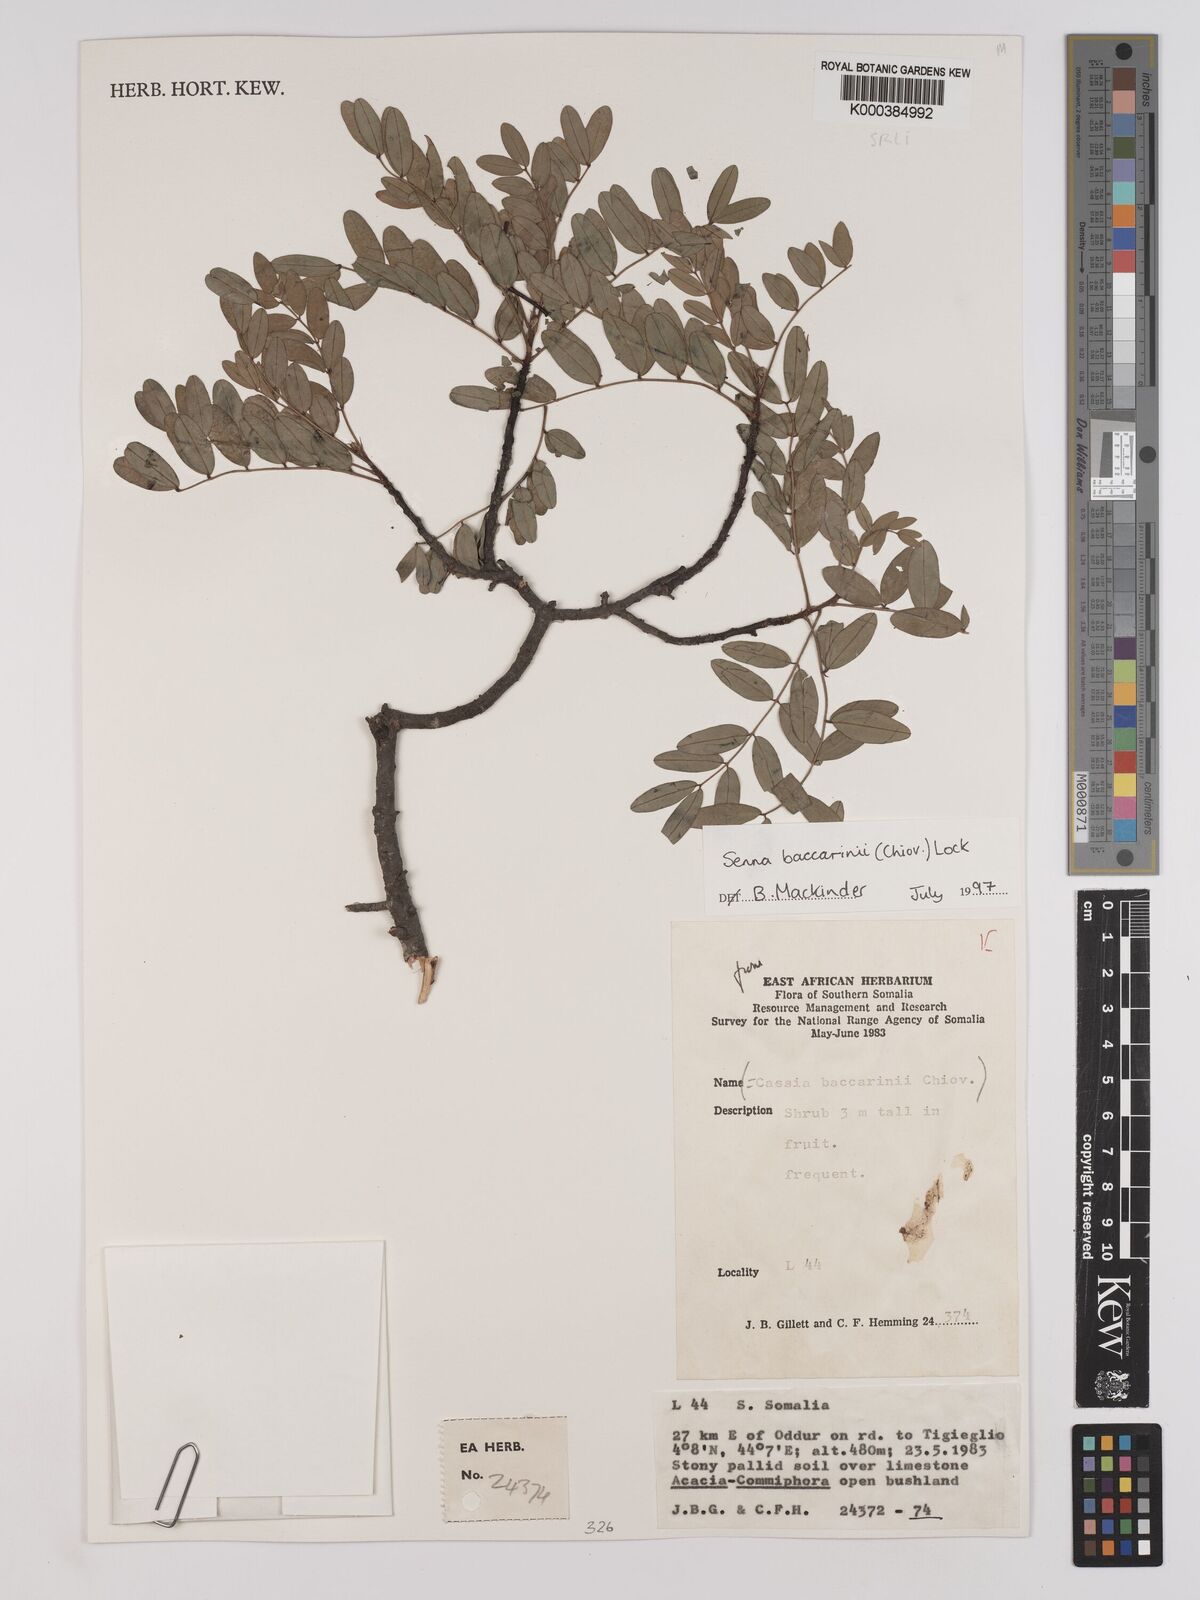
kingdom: Plantae
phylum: Tracheophyta
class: Magnoliopsida
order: Fabales
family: Fabaceae
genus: Senna
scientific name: Senna baccarinii
